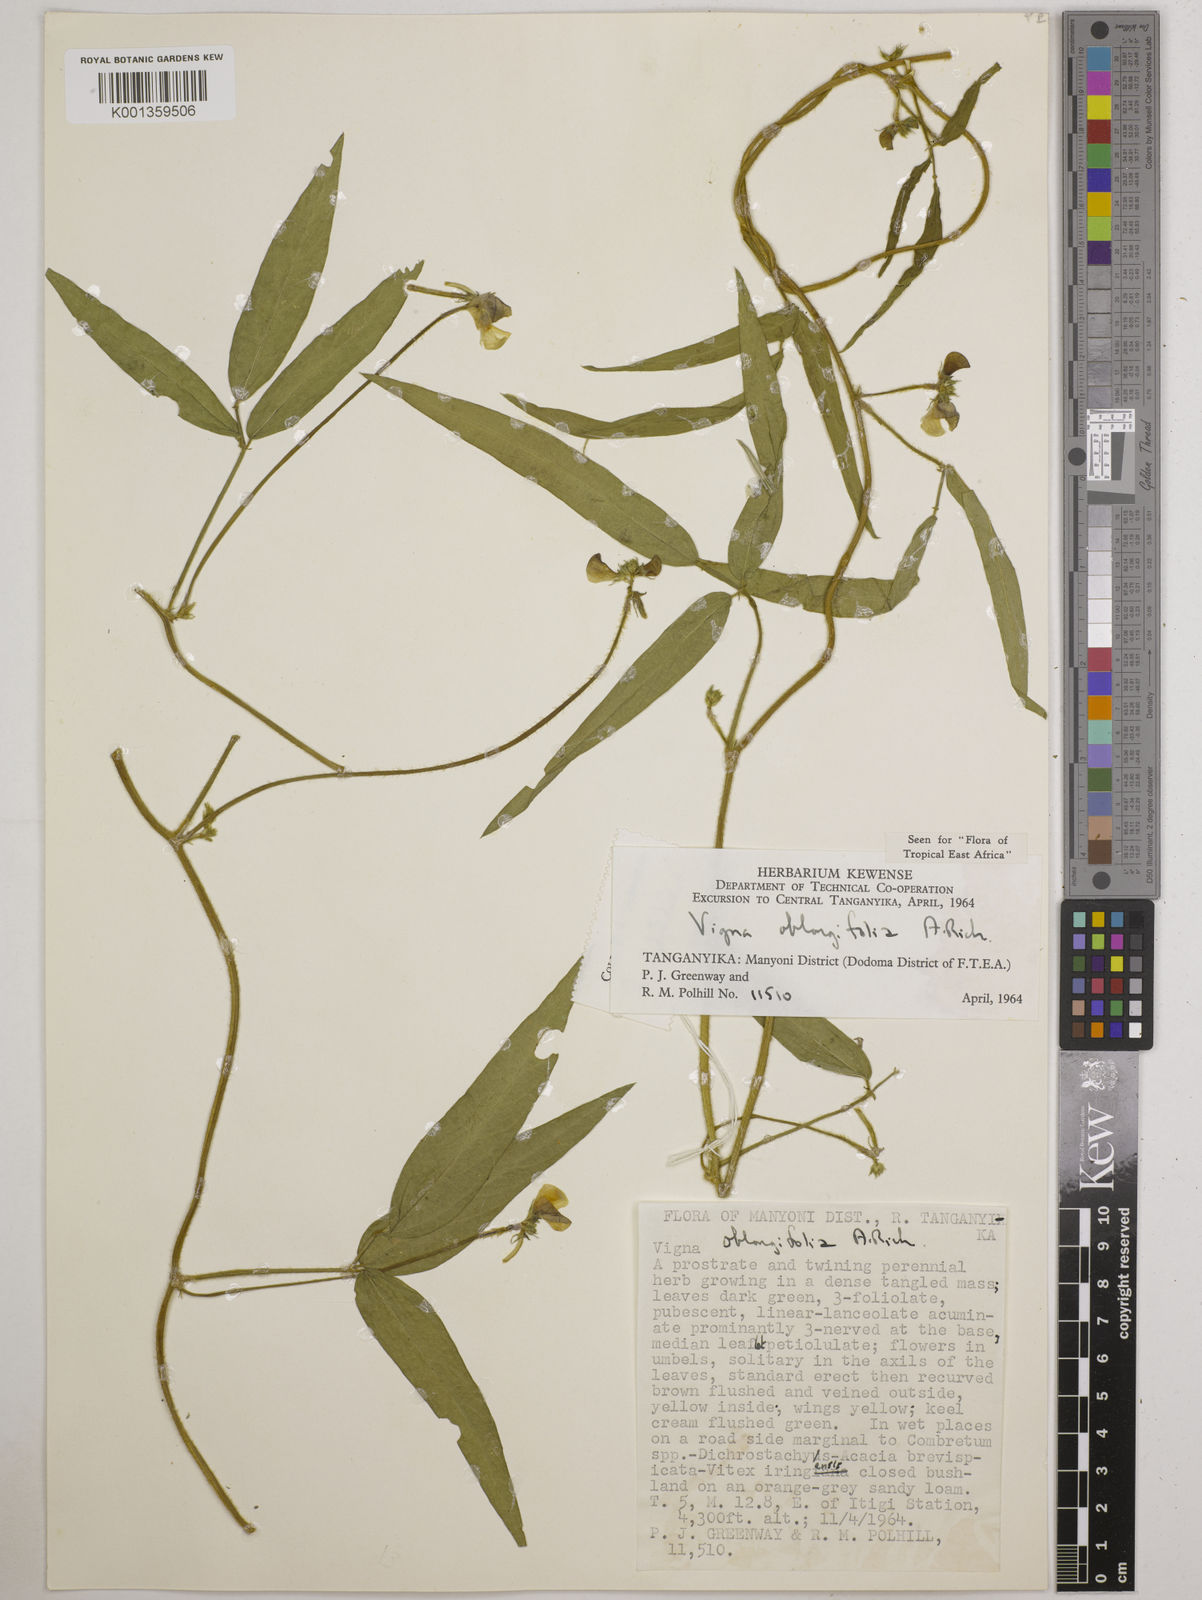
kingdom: Plantae
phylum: Tracheophyta
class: Magnoliopsida
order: Fabales
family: Fabaceae
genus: Vigna
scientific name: Vigna oblongifolia
